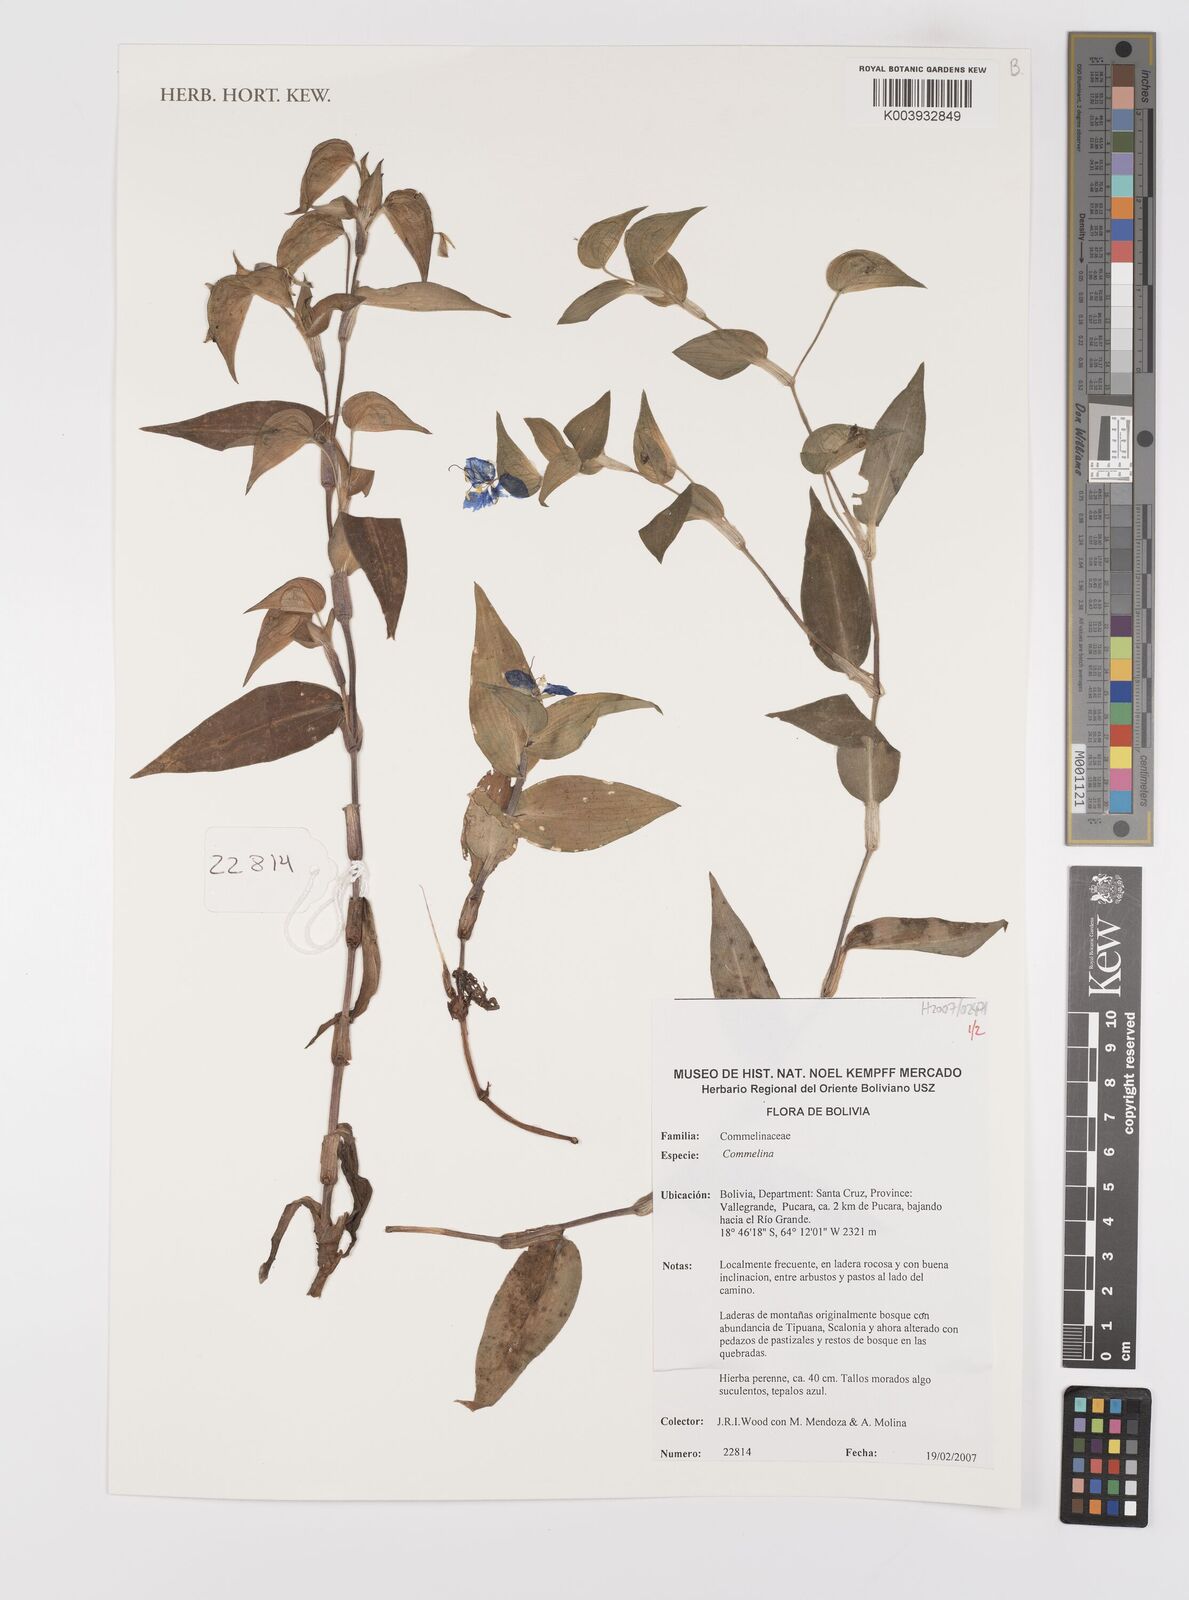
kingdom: Plantae
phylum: Tracheophyta
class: Liliopsida
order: Commelinales
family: Commelinaceae
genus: Commelina
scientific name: Commelina
